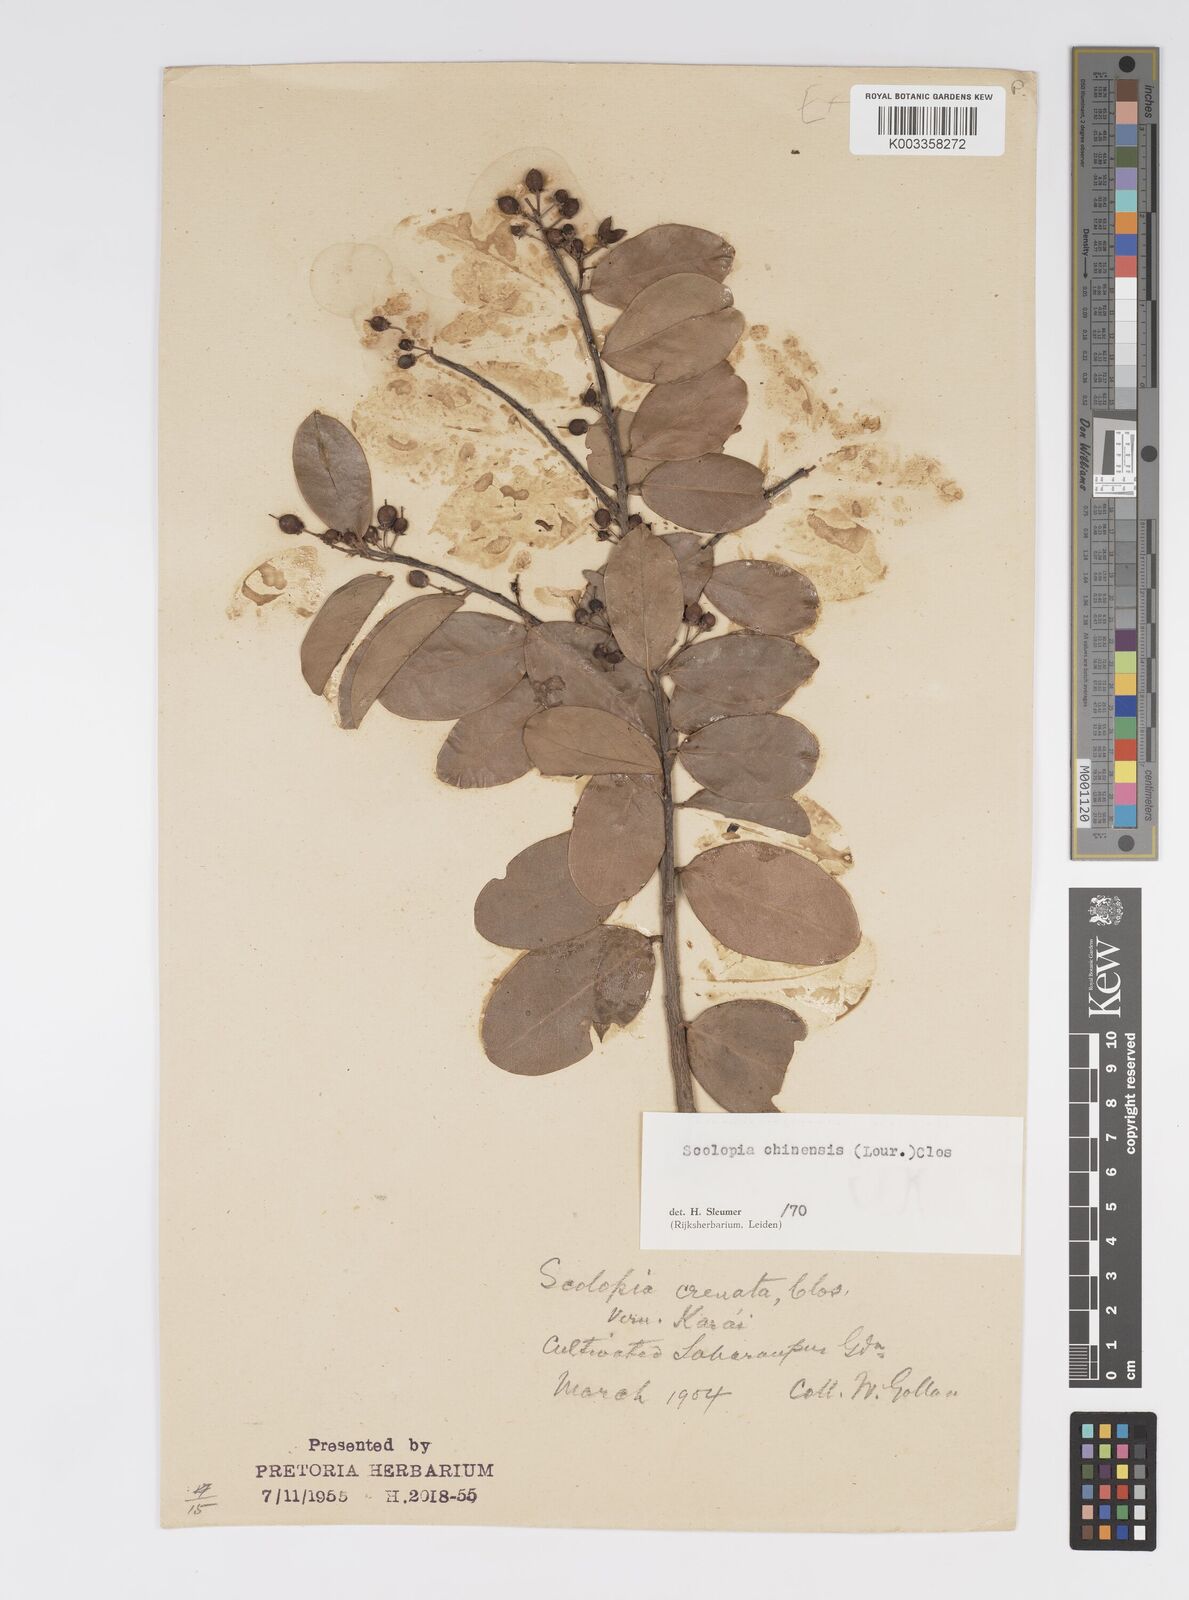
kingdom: Plantae
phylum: Tracheophyta
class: Magnoliopsida
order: Malpighiales
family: Salicaceae
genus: Scolopia
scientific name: Scolopia crenata
